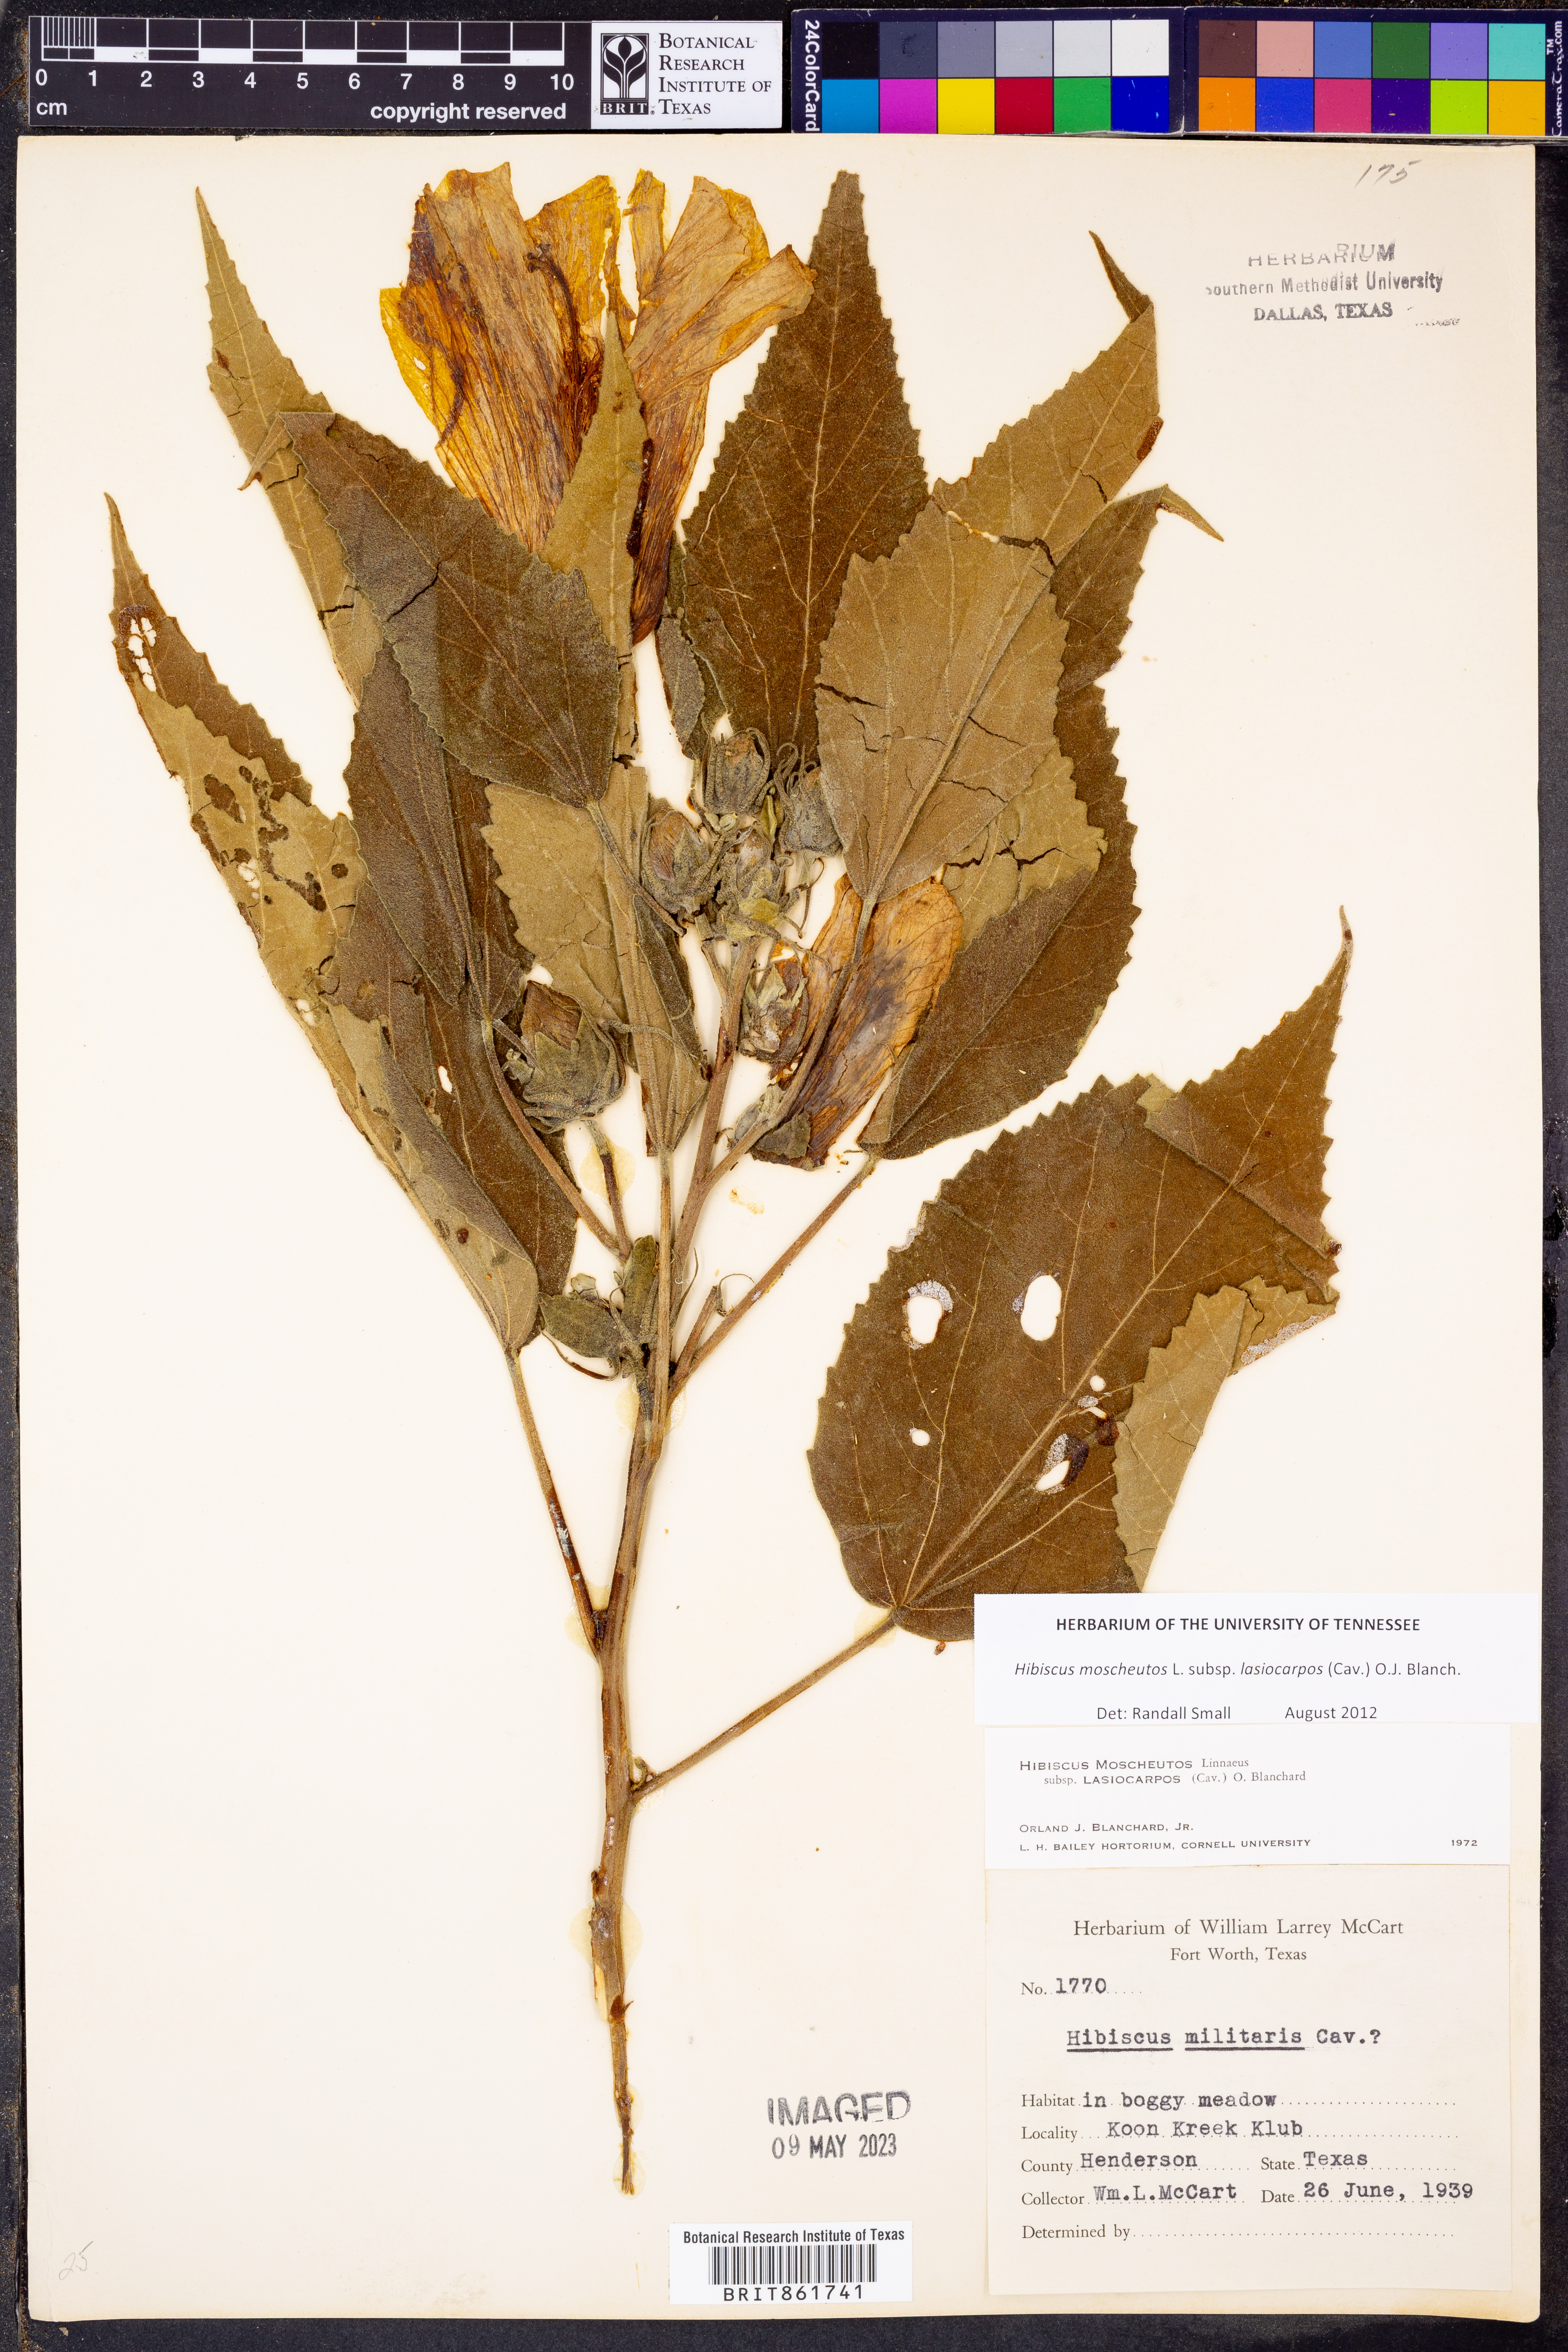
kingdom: Plantae
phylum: Tracheophyta
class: Magnoliopsida
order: Malvales
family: Malvaceae
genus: Hibiscus
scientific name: Hibiscus moscheutos
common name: Common rose-mallow
